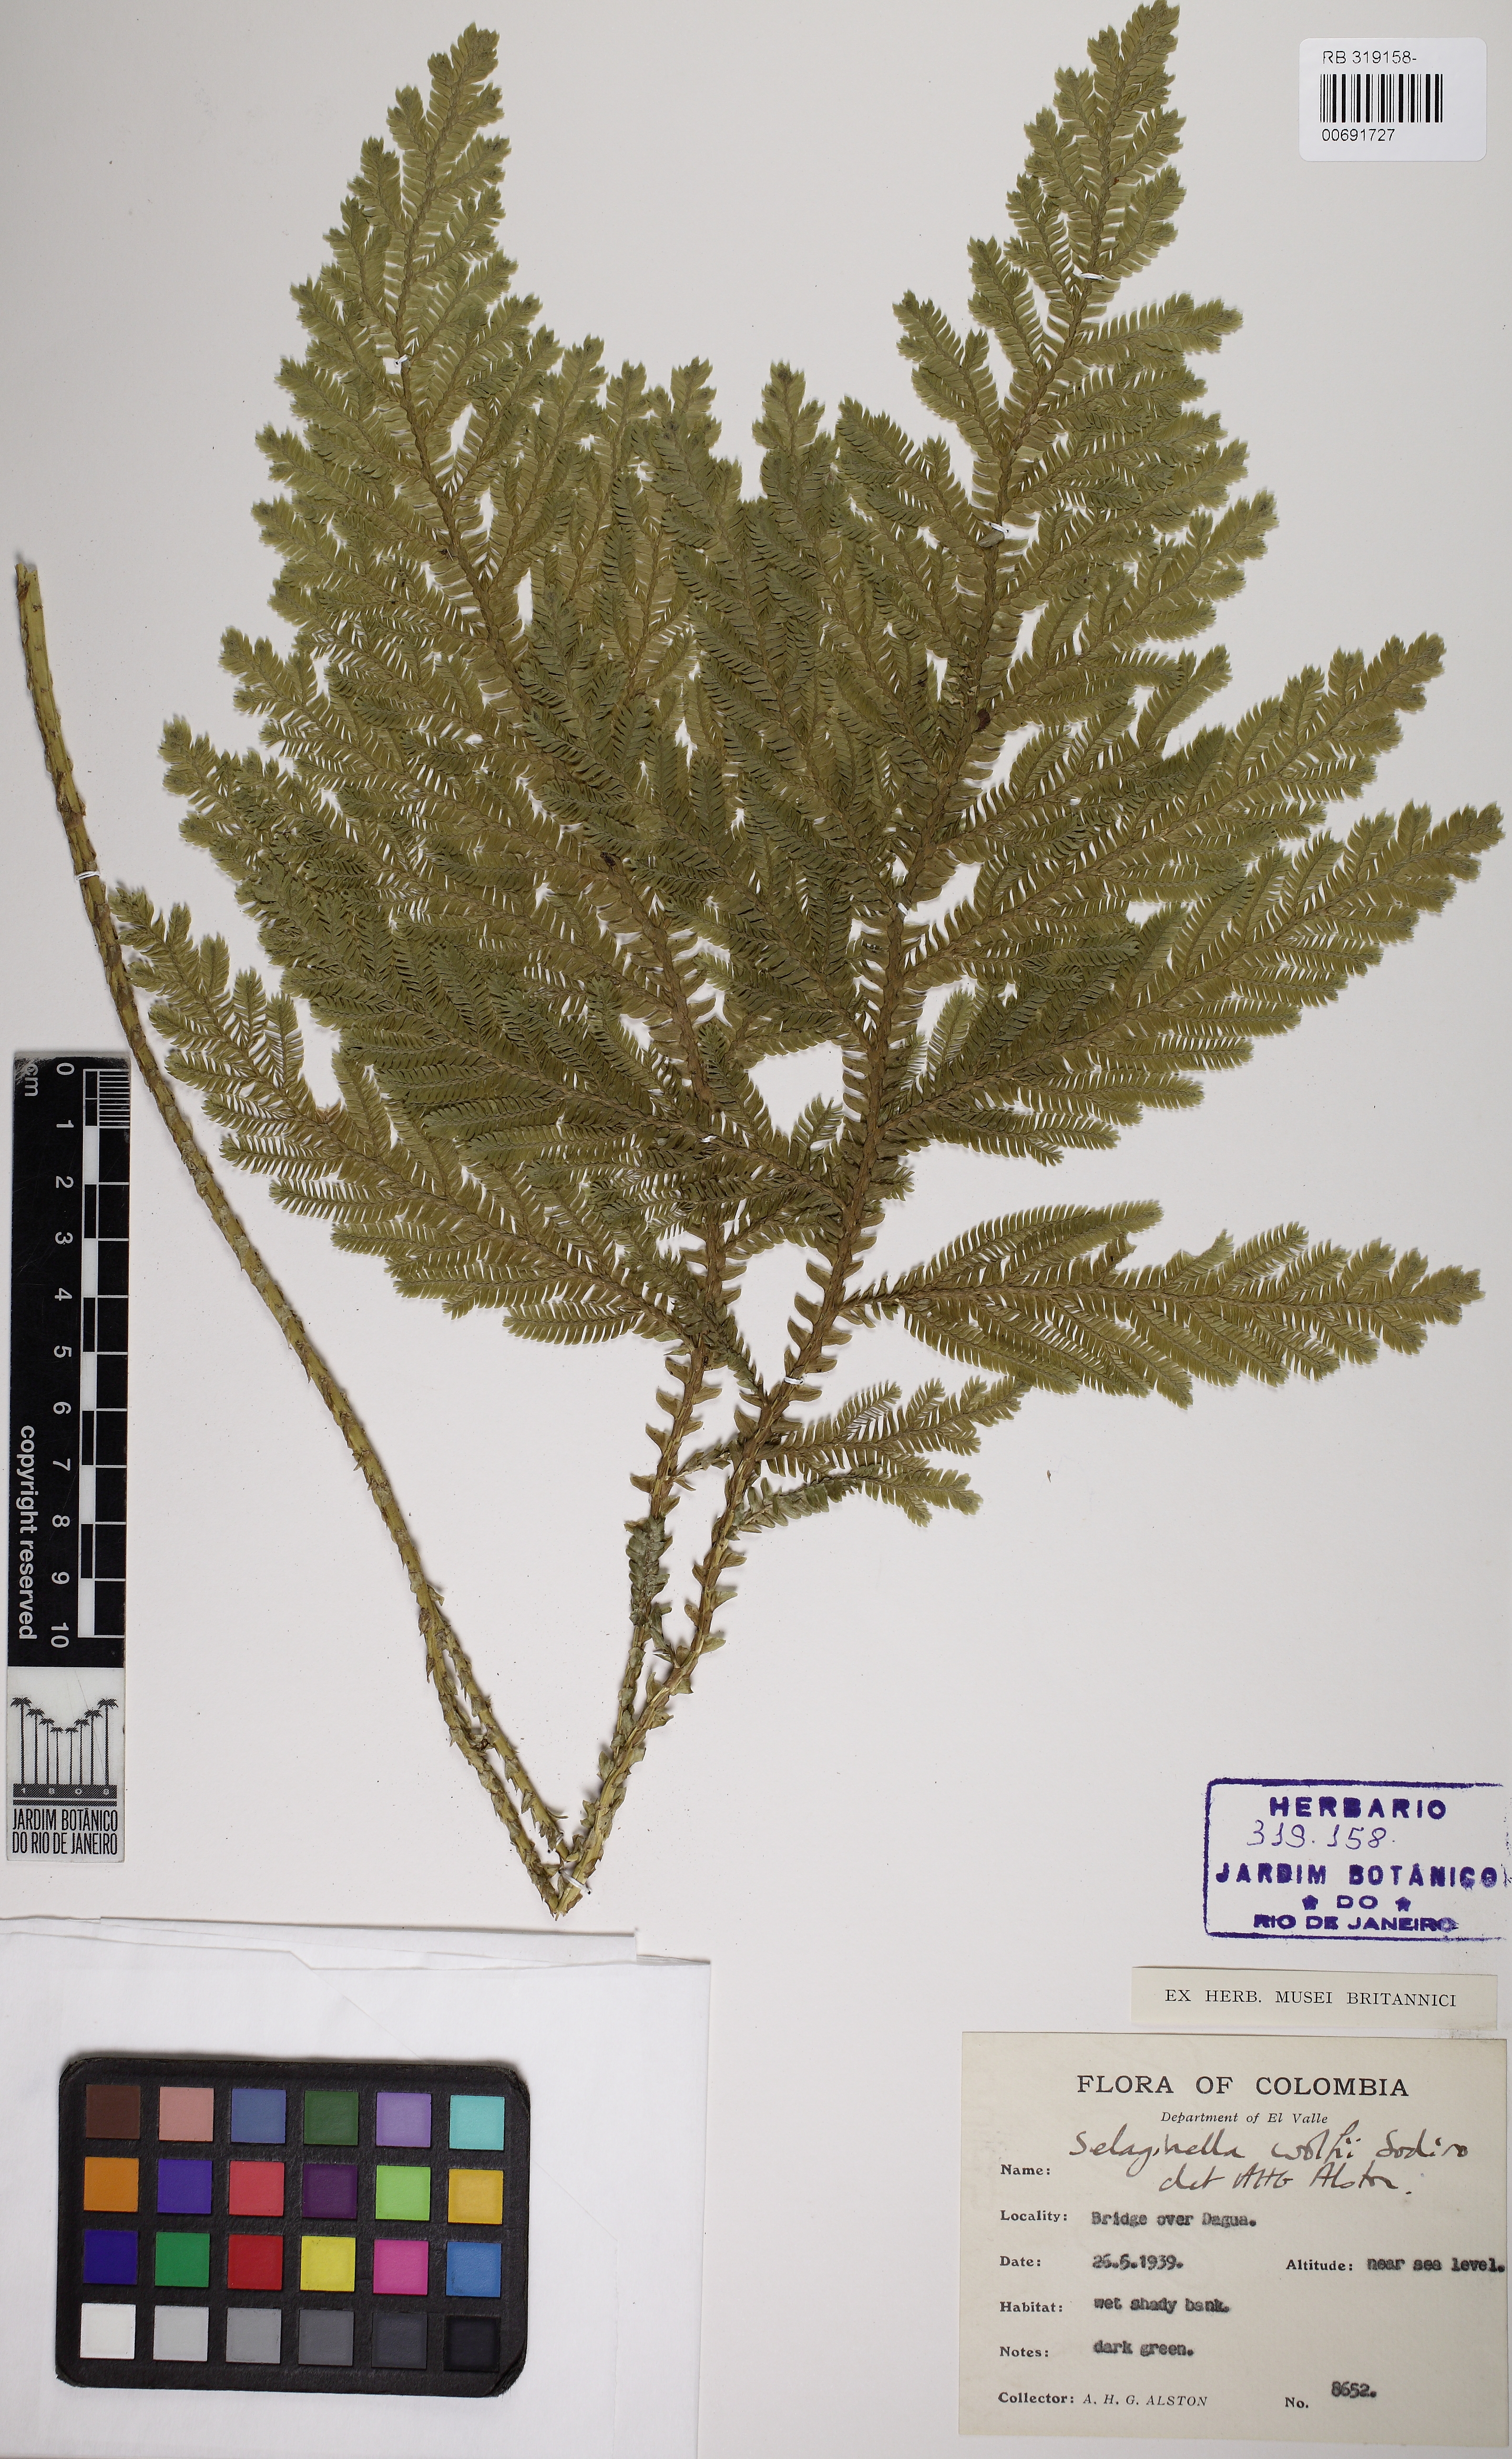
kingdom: Plantae
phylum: Tracheophyta
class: Lycopodiopsida
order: Selaginellales
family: Selaginellaceae
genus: Selaginella
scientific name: Selaginella wolffii
